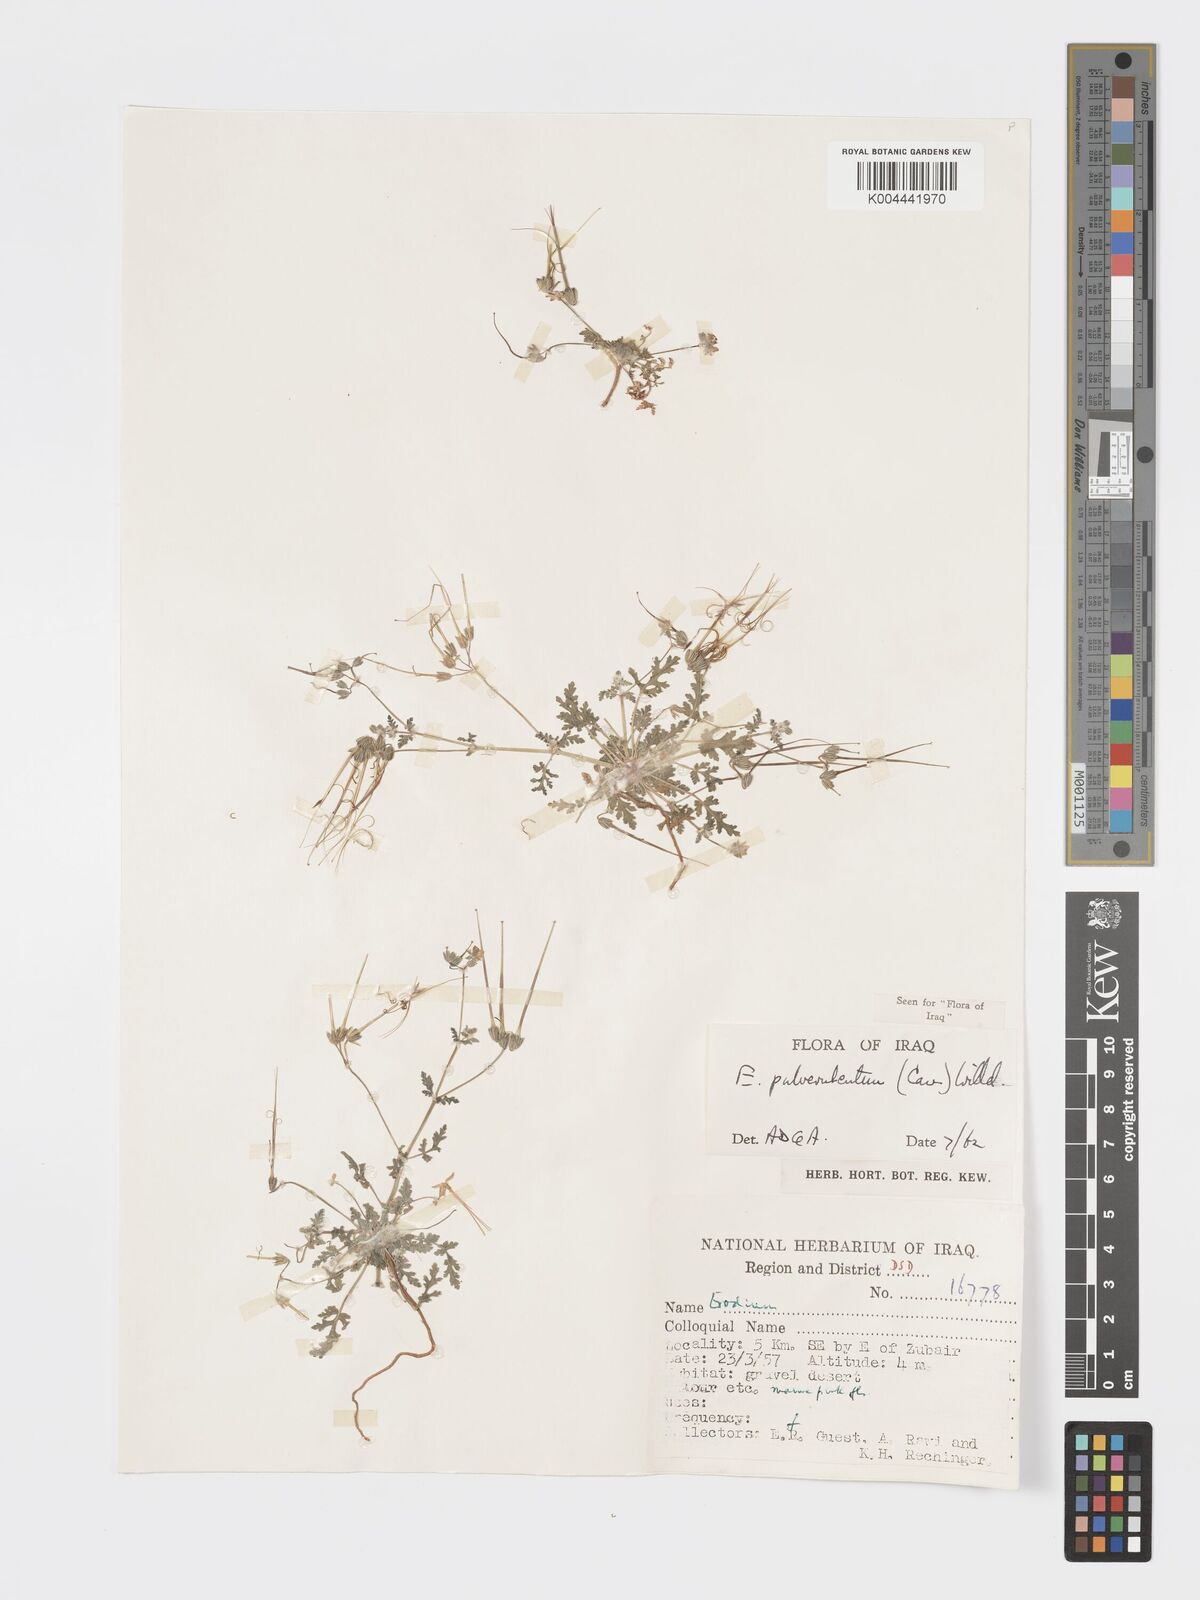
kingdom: Plantae
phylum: Tracheophyta
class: Magnoliopsida
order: Geraniales
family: Geraniaceae
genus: Erodium
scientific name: Erodium laciniatum
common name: Cutleaf stork's bill
